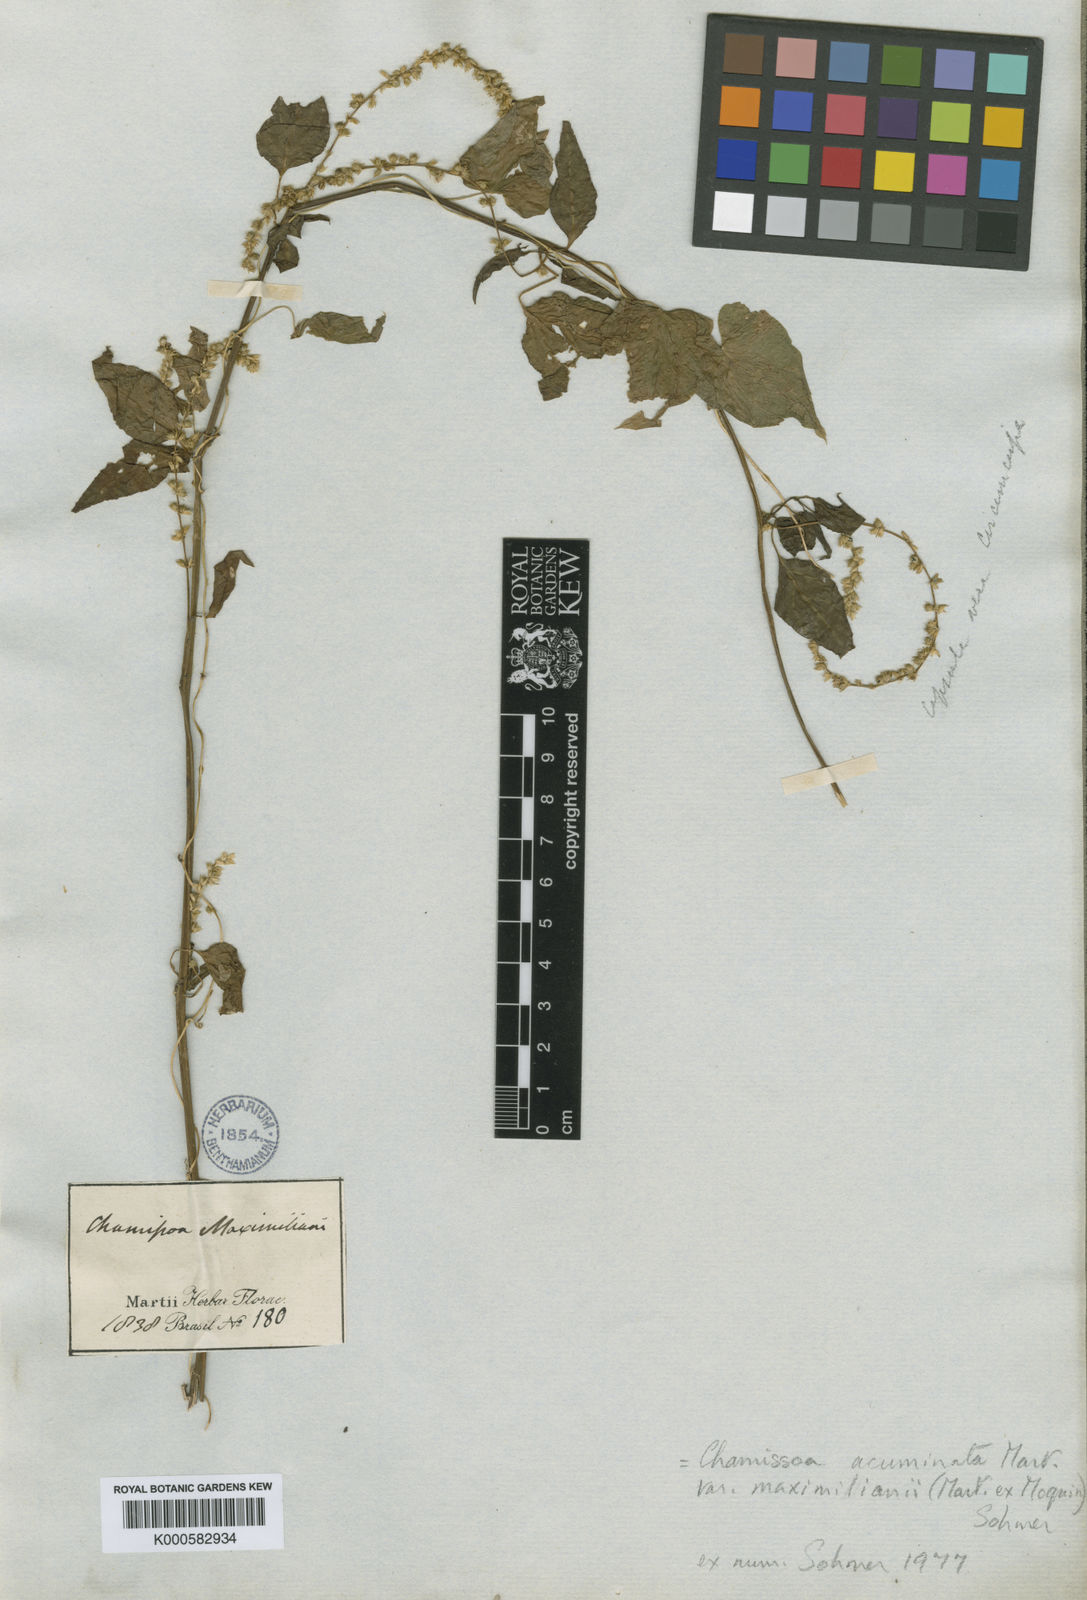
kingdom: Plantae
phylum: Tracheophyta
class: Magnoliopsida
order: Caryophyllales
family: Amaranthaceae
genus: Chamissoa
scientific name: Chamissoa maximiliani
